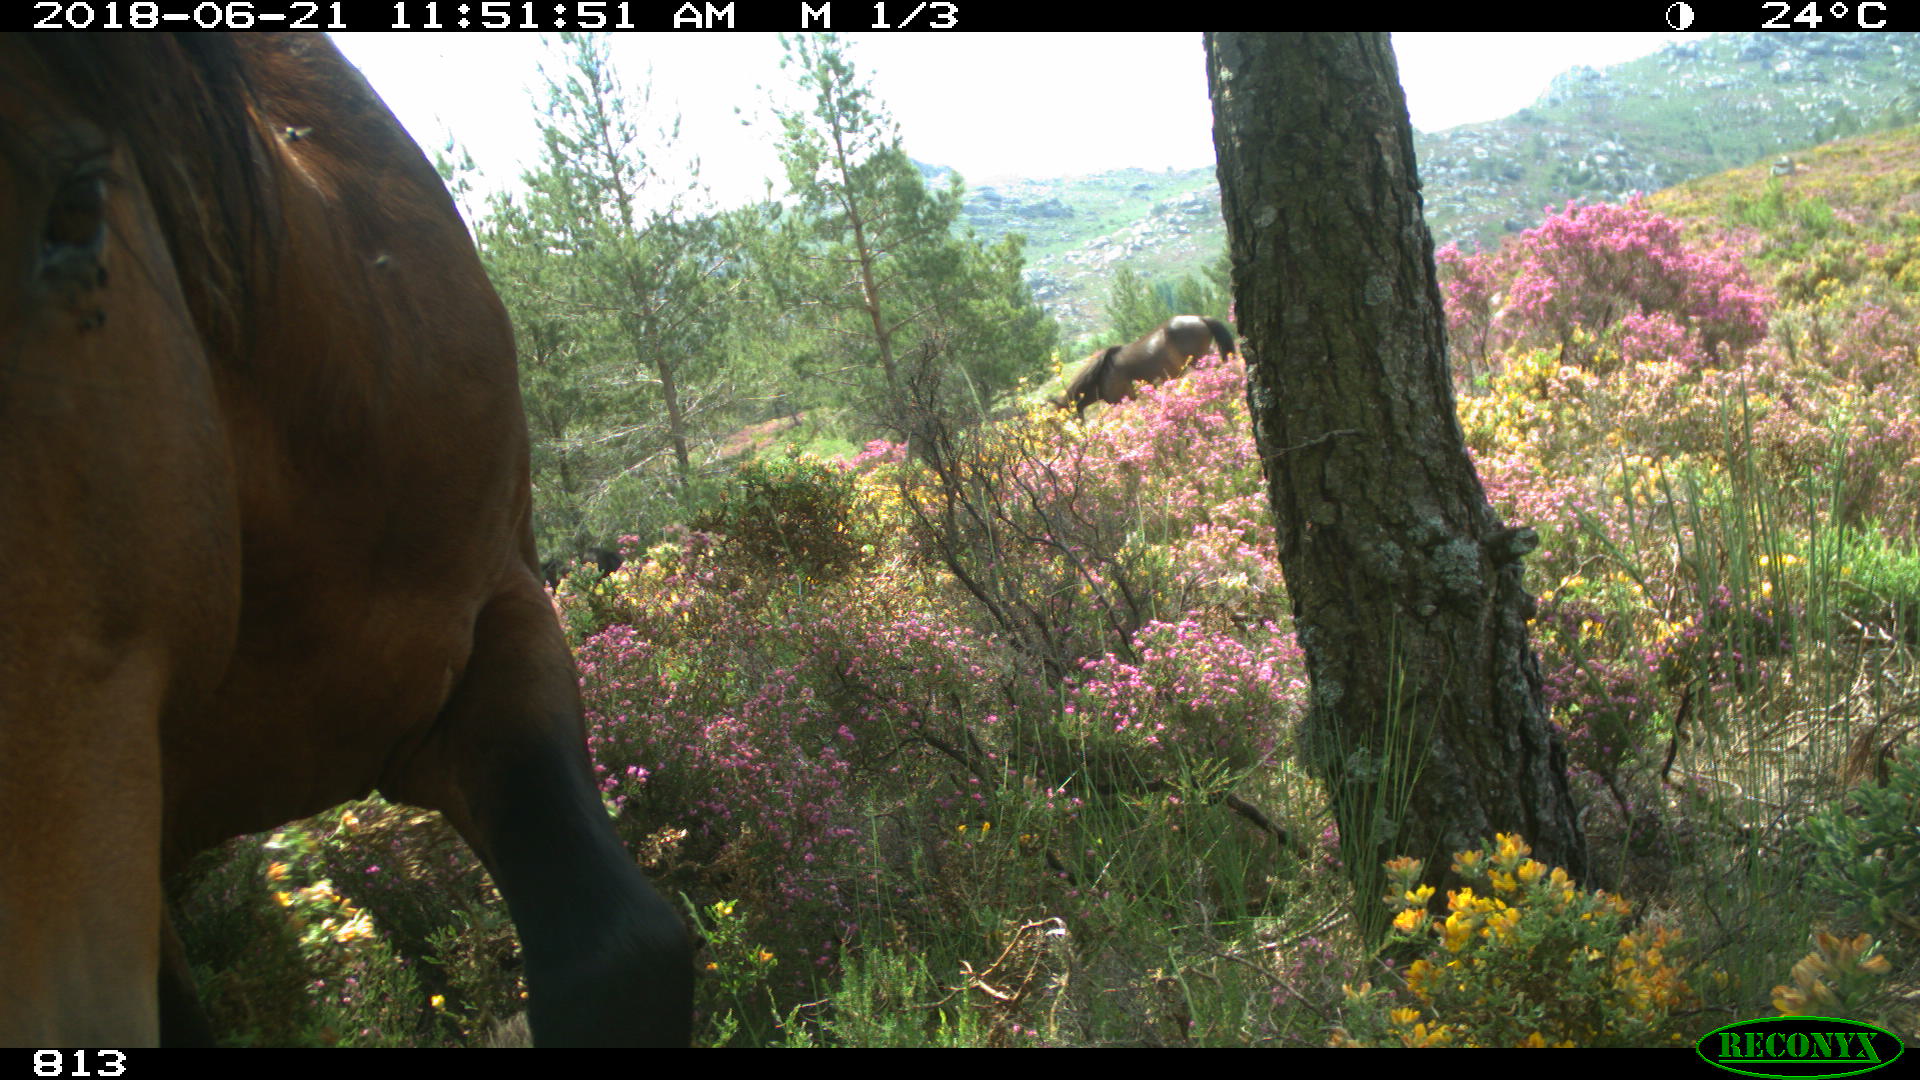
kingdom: Animalia
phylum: Chordata
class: Mammalia
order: Perissodactyla
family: Equidae
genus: Equus
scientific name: Equus caballus
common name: Horse
